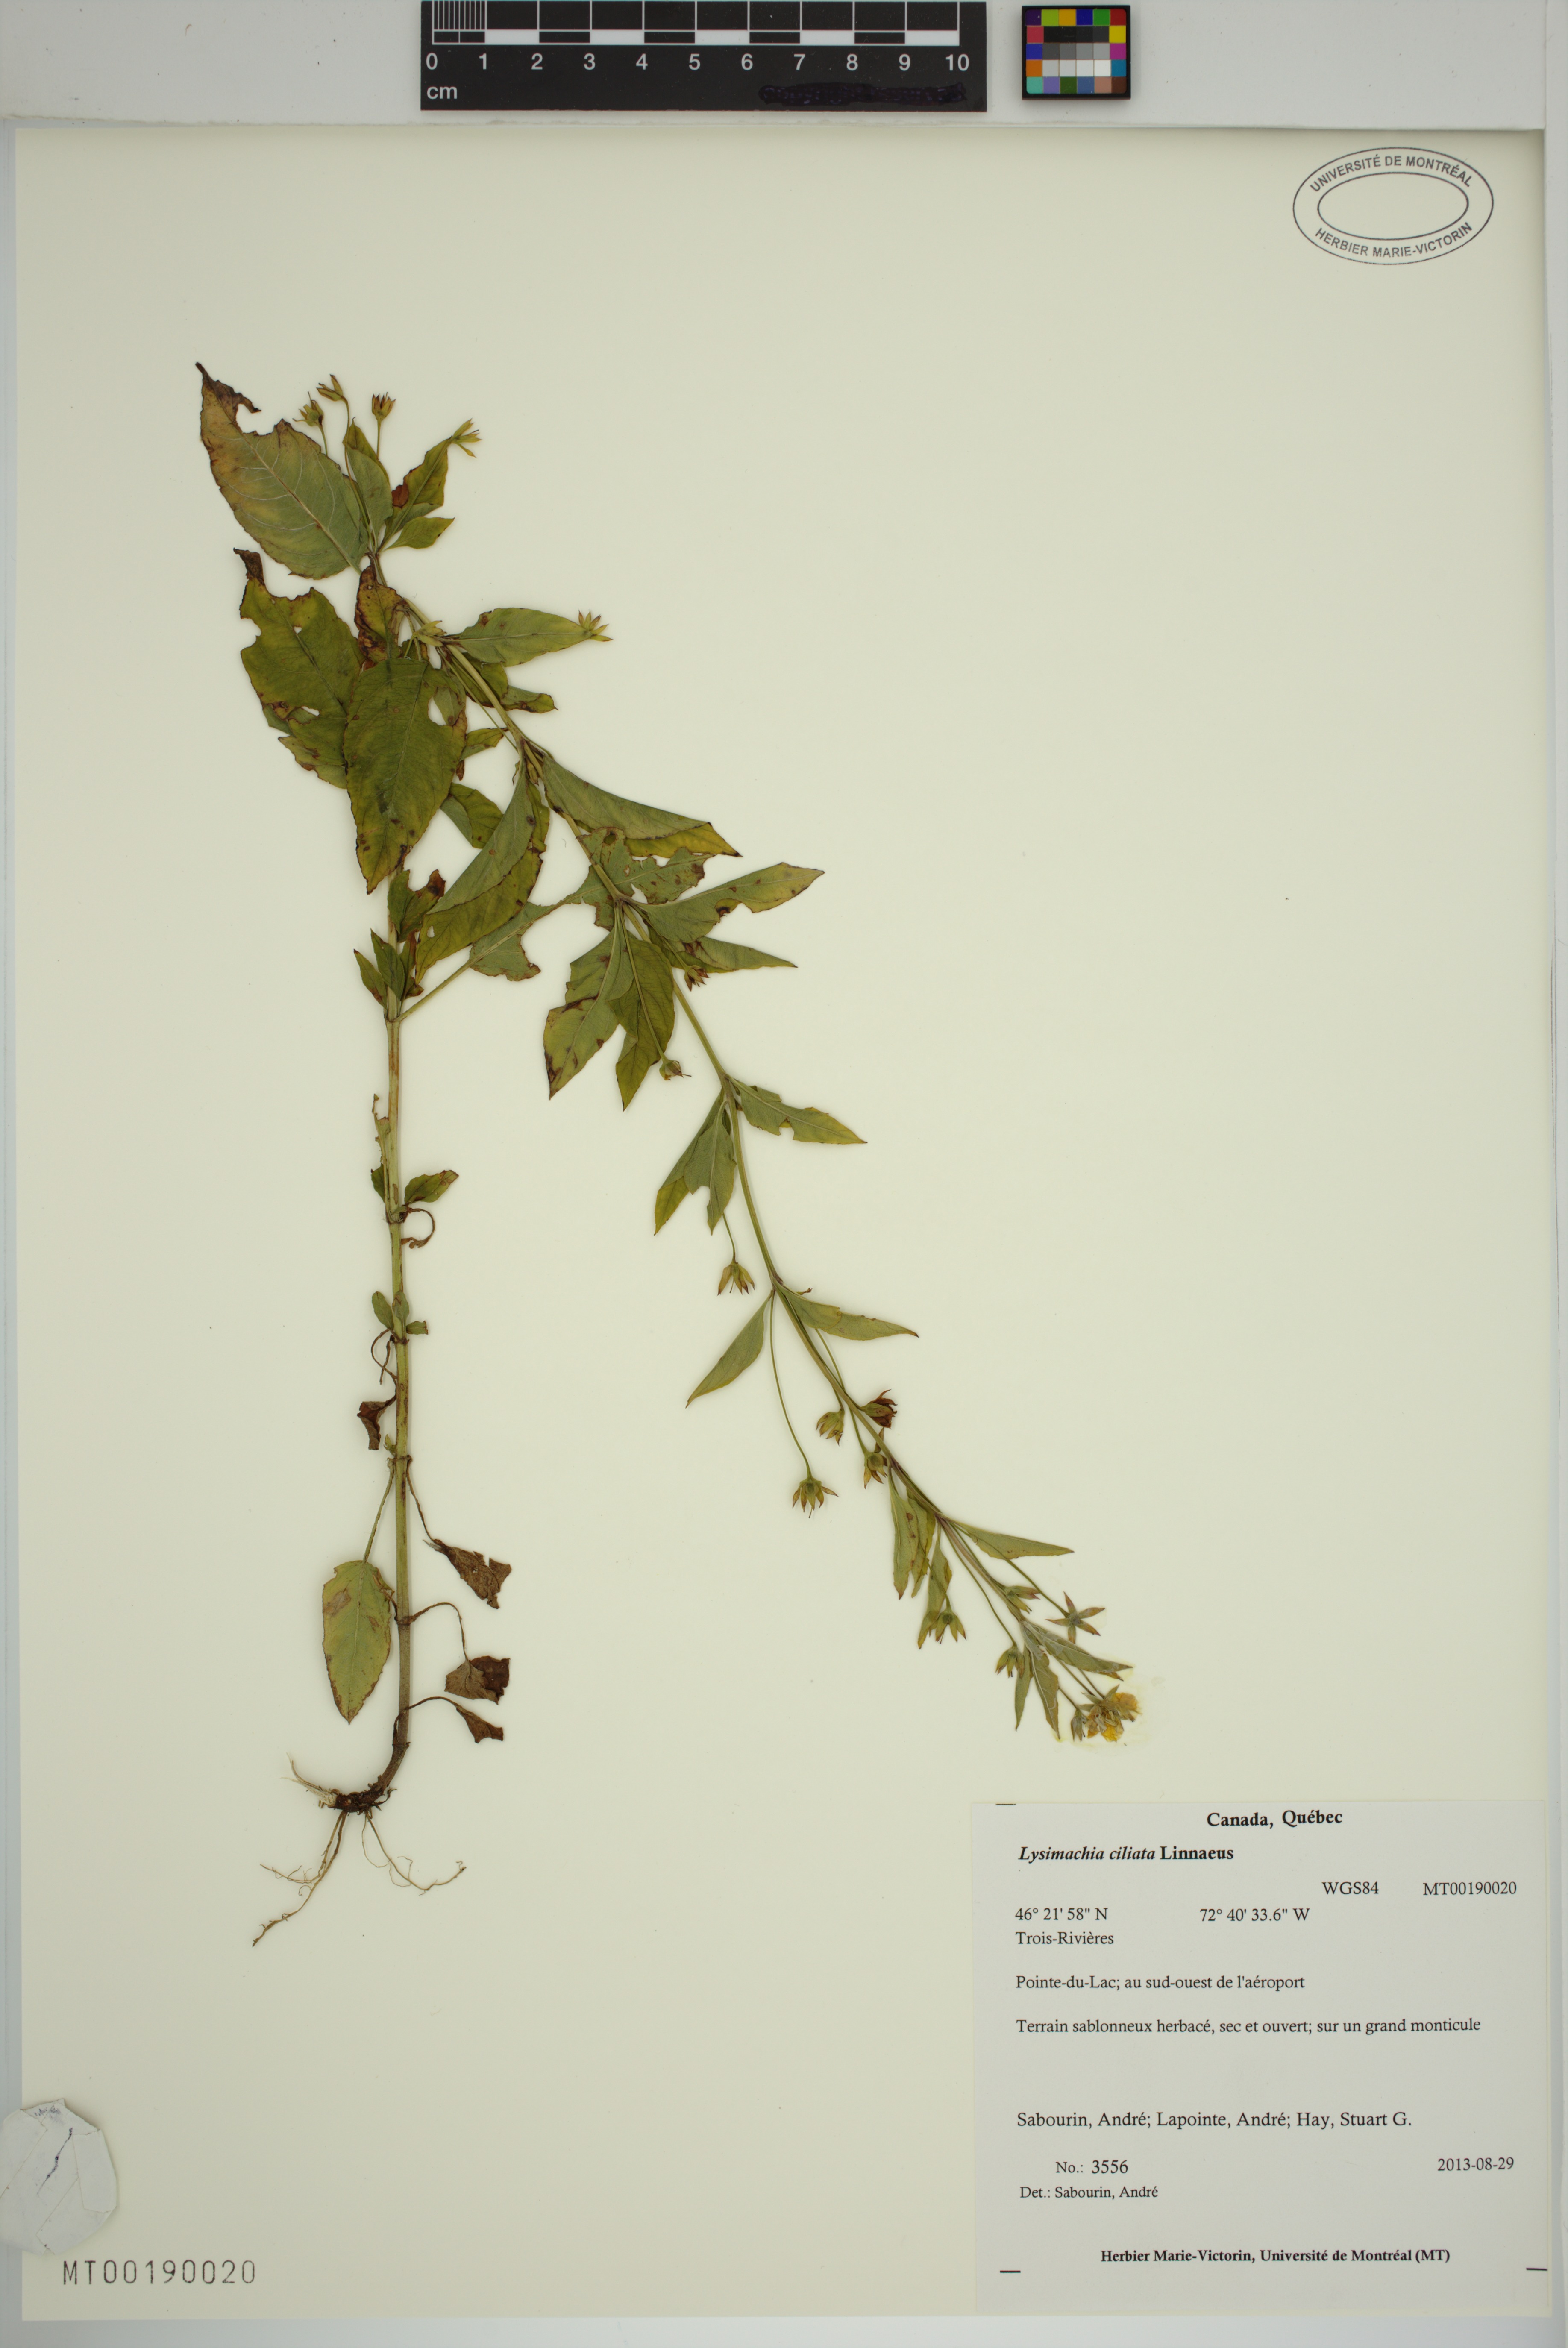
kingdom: Plantae
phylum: Tracheophyta
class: Magnoliopsida
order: Ericales
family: Primulaceae
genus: Lysimachia
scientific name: Lysimachia ciliata
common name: Fringed loosestrife
